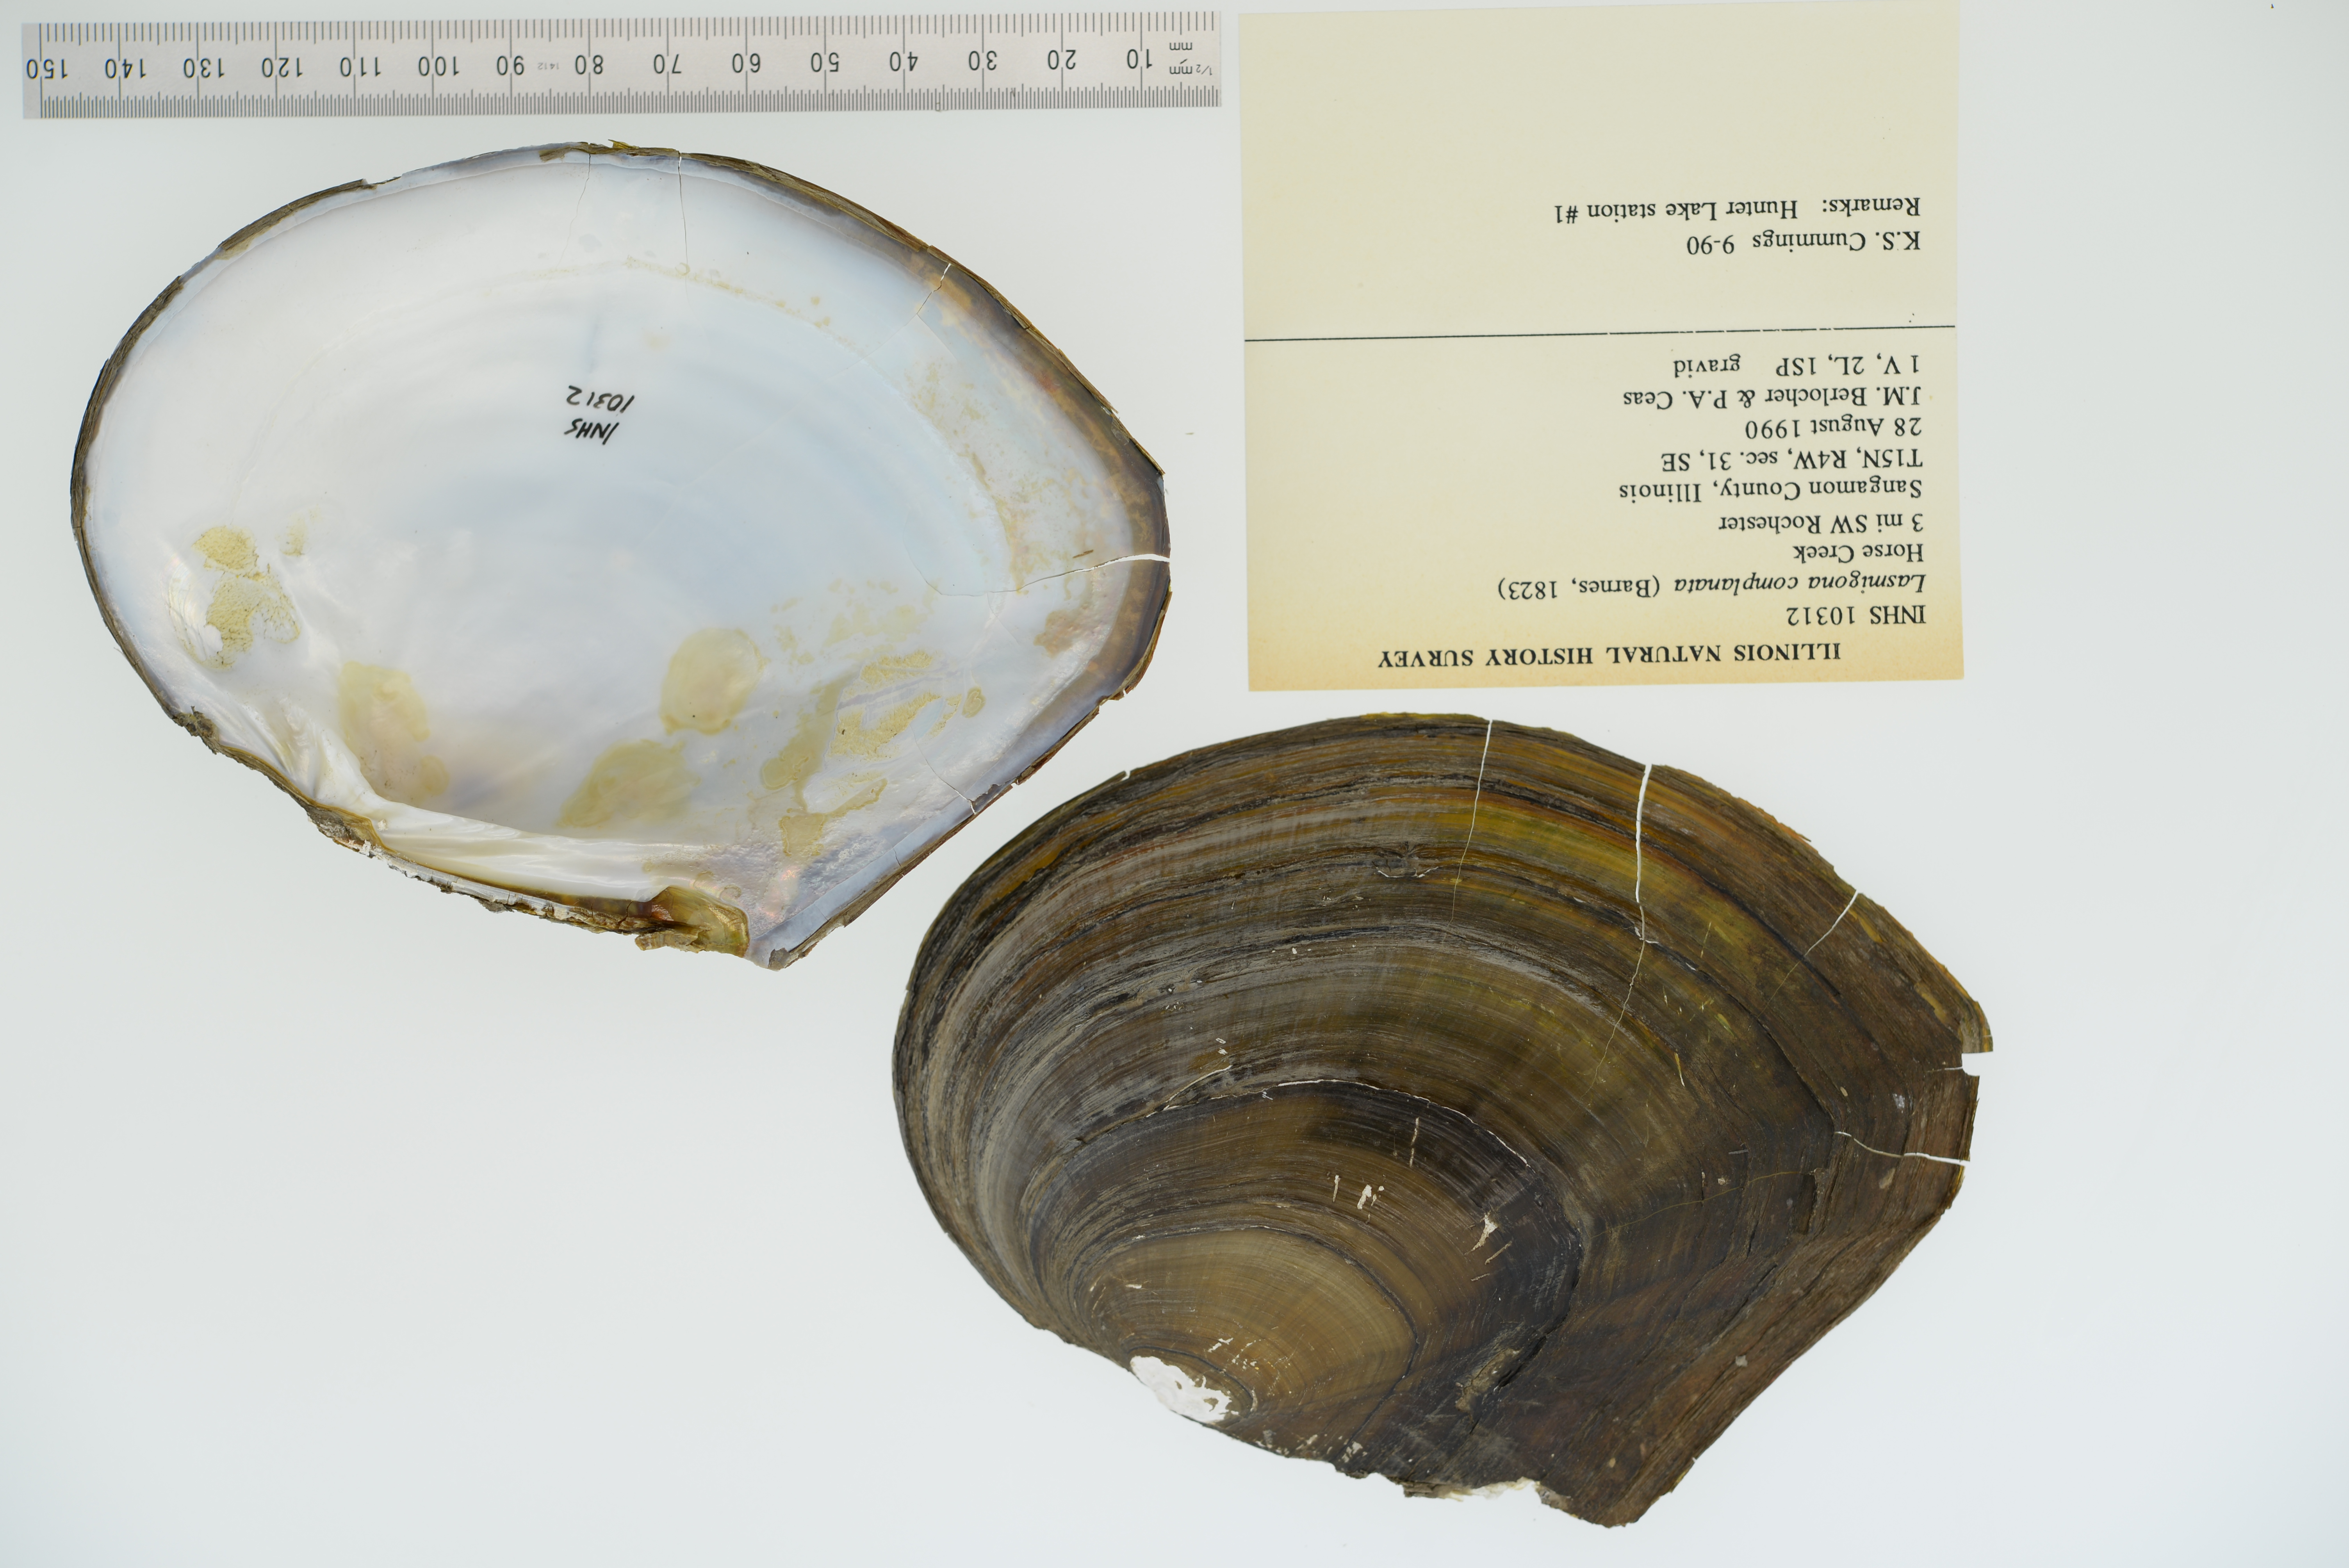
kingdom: Animalia
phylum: Mollusca
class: Bivalvia
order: Unionida
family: Unionidae
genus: Lasmigona
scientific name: Lasmigona complanata
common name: White heelsplitter
